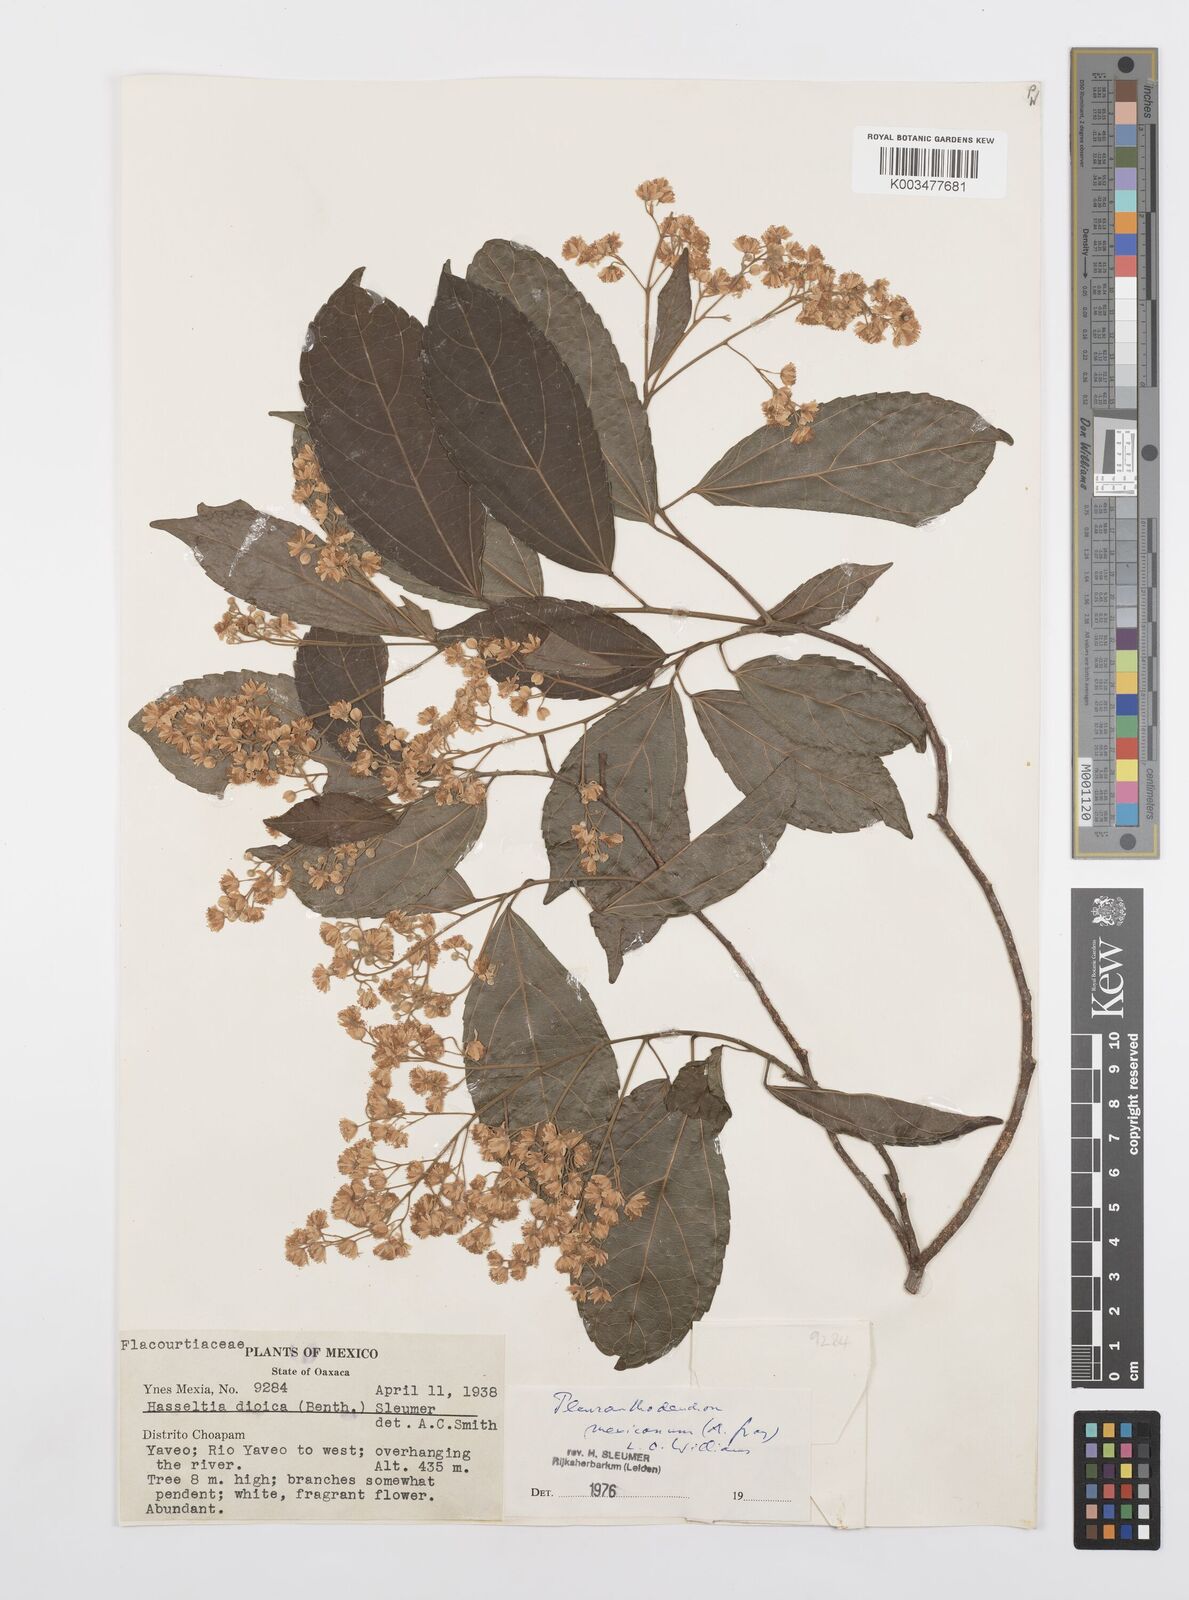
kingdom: Plantae
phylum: Tracheophyta
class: Magnoliopsida
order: Malpighiales
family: Salicaceae
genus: Pleuranthodendron
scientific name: Pleuranthodendron lindenii
